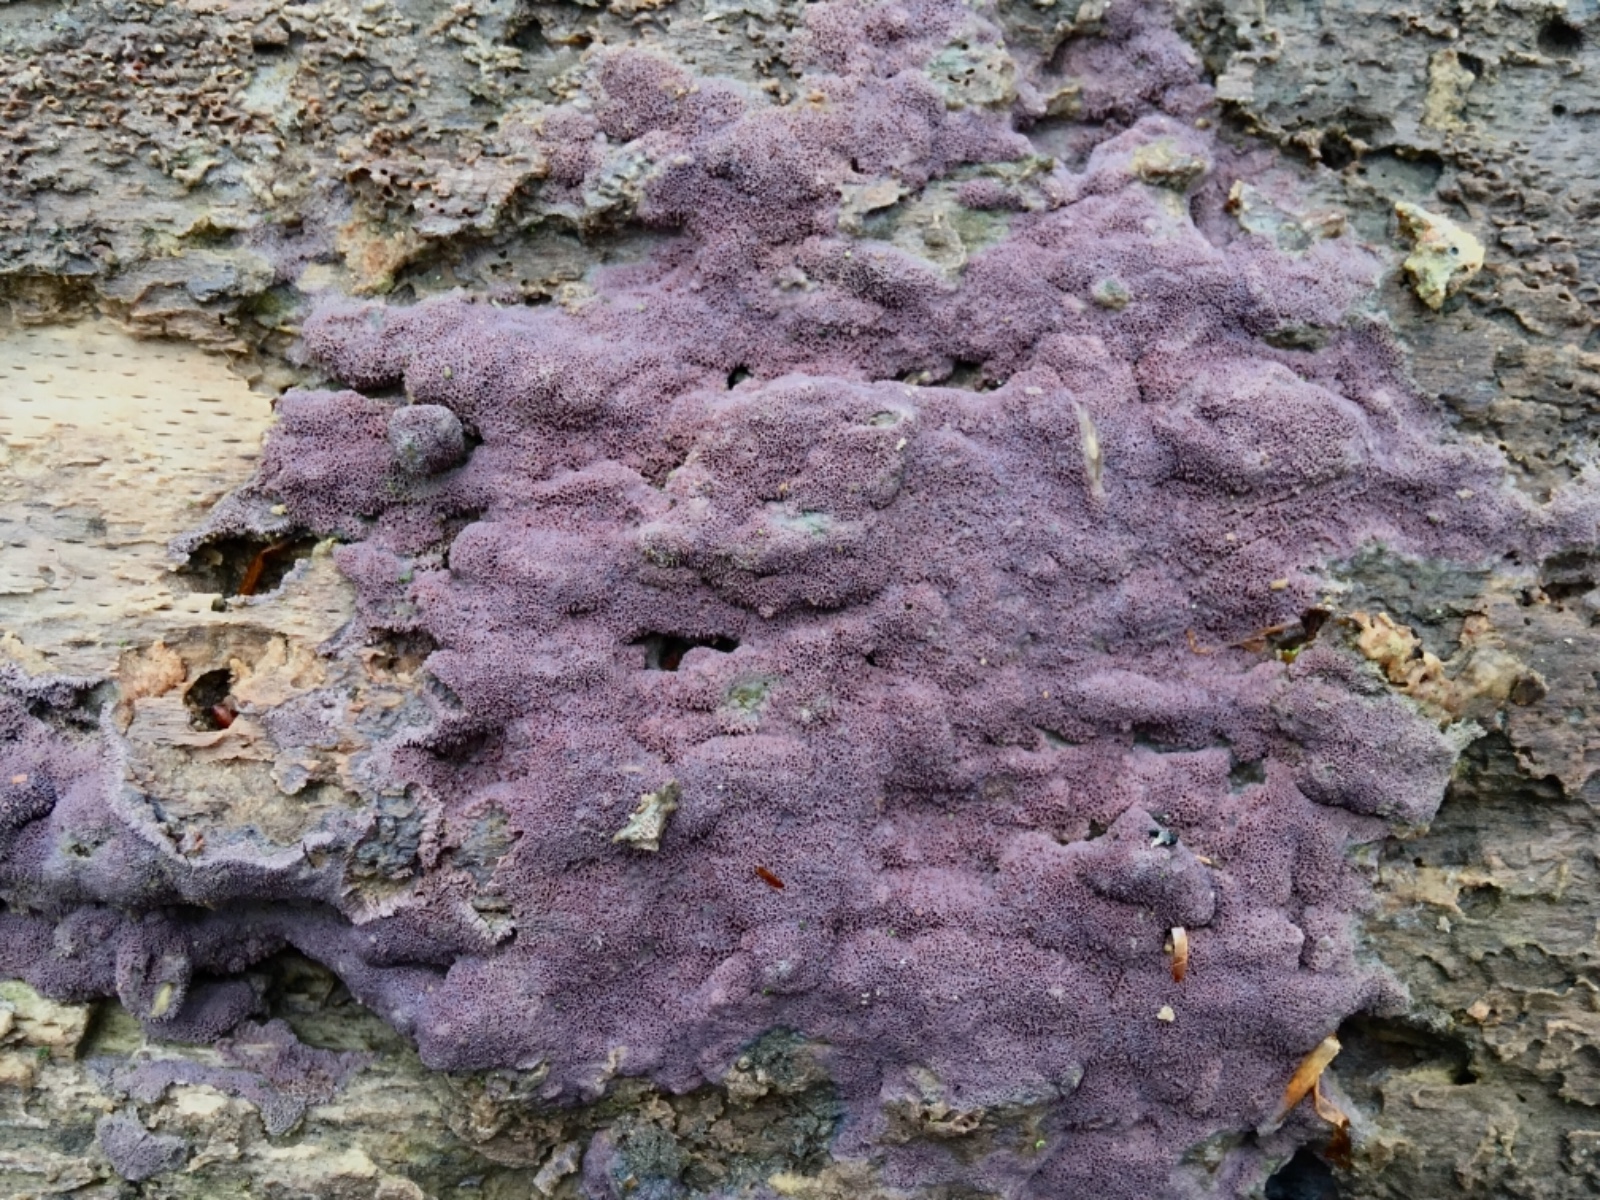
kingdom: Fungi
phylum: Basidiomycota
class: Agaricomycetes
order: Polyporales
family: Irpicaceae
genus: Ceriporia
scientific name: Ceriporia excelsa
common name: lilla voksporesvamp
